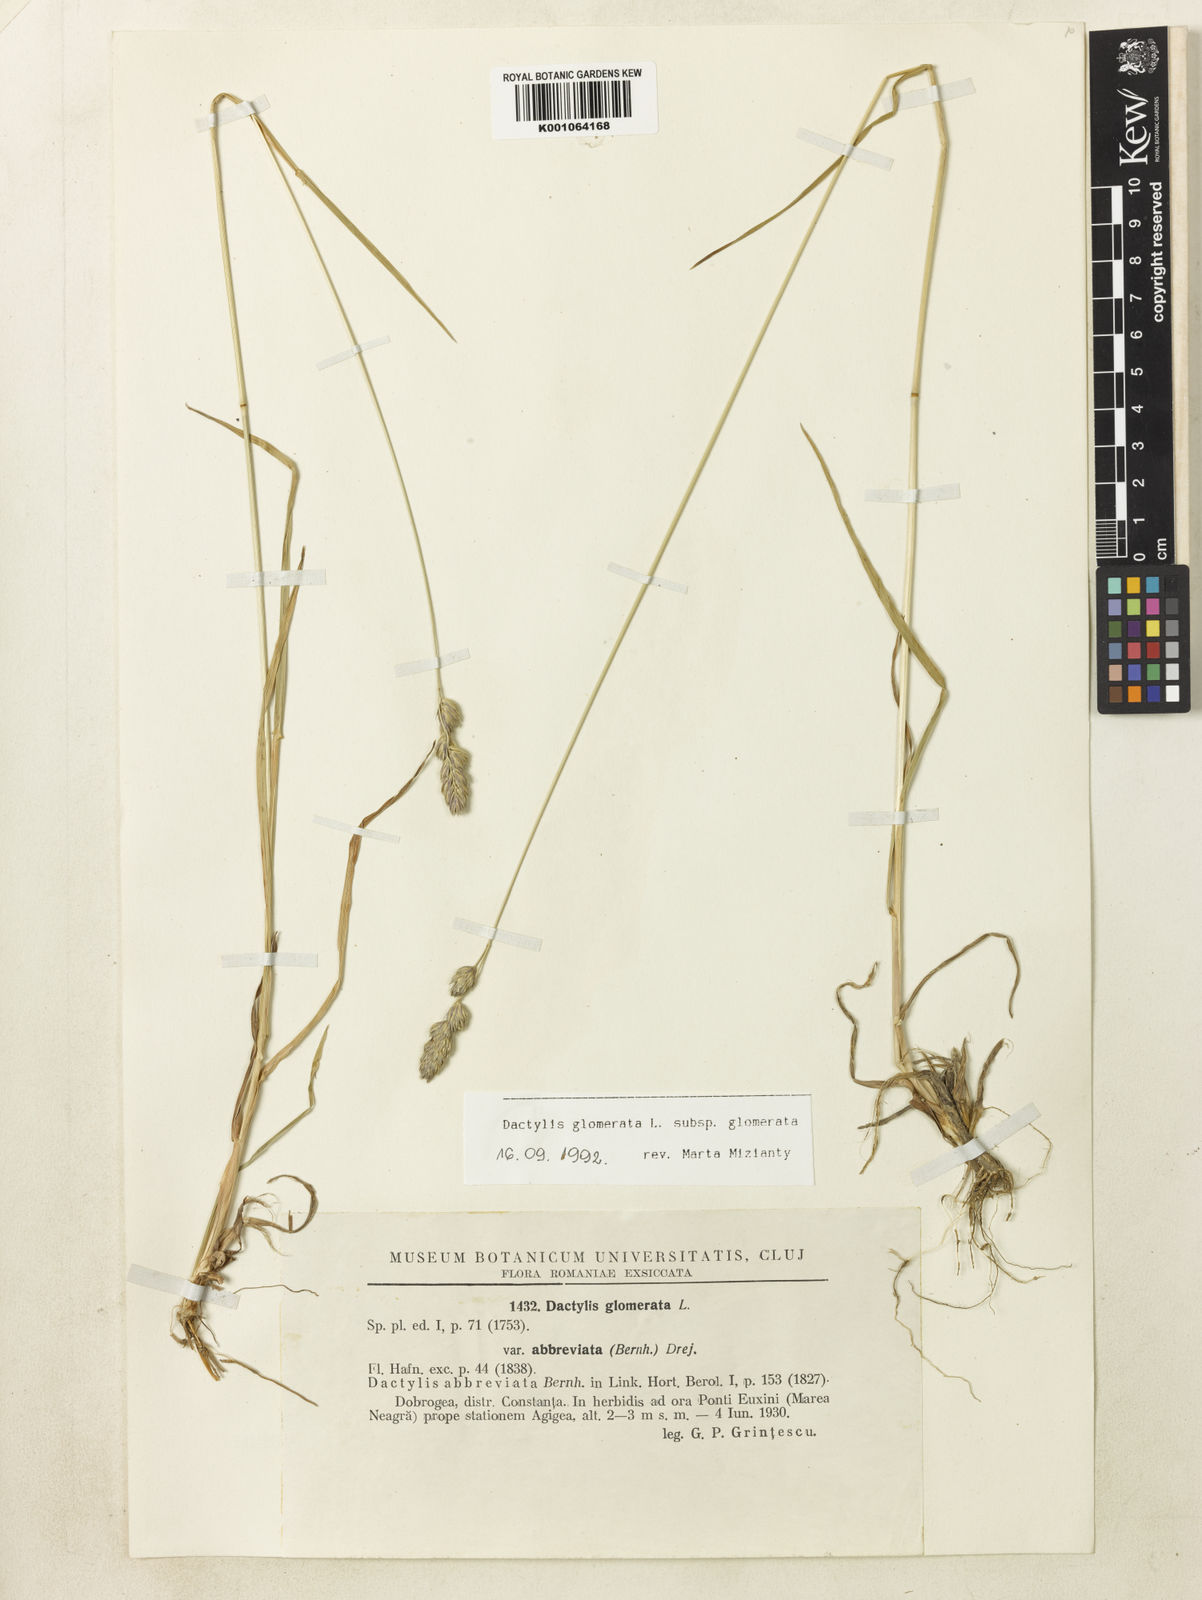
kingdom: Plantae
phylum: Tracheophyta
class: Liliopsida
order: Poales
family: Poaceae
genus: Dactylis
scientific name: Dactylis glomerata
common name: Orchardgrass
